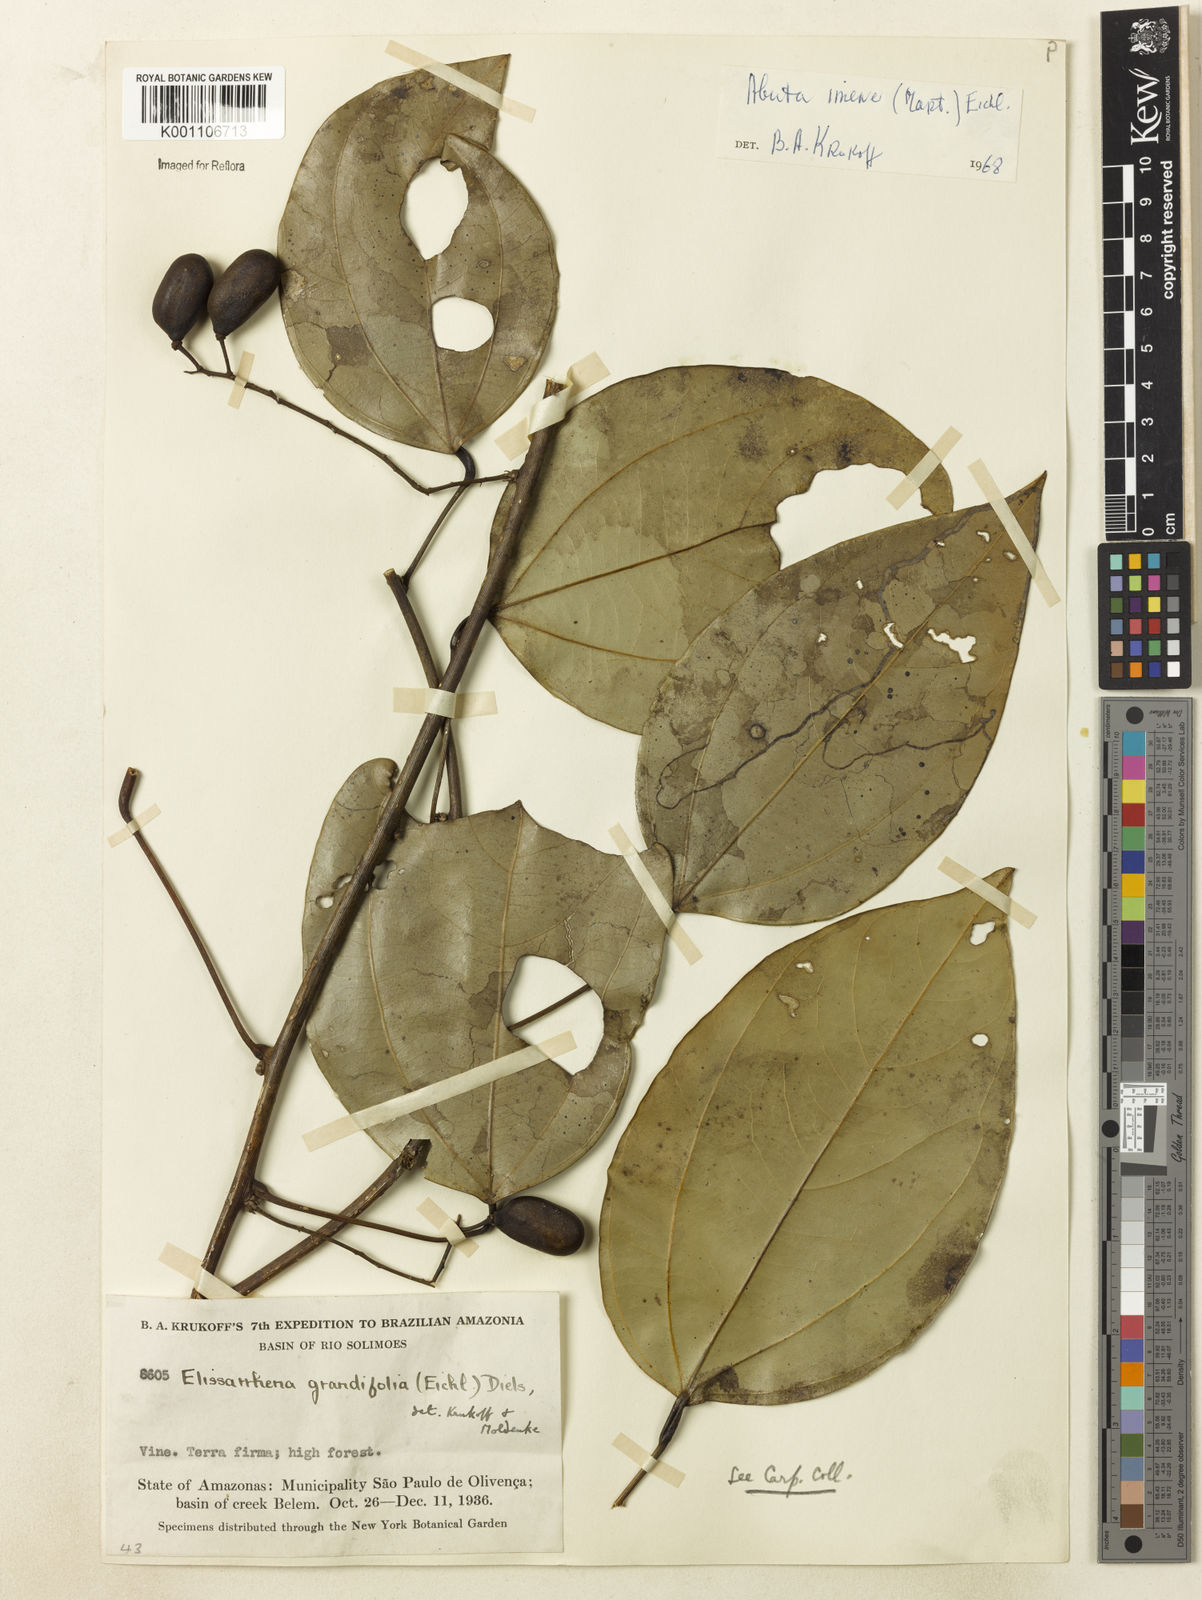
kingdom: Plantae
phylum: Tracheophyta
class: Magnoliopsida
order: Ranunculales
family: Menispermaceae
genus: Abuta
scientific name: Abuta imene
